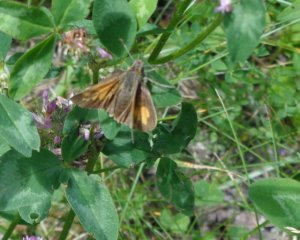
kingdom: Animalia
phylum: Arthropoda
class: Insecta
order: Lepidoptera
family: Hesperiidae
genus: Lon
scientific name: Lon hobomok
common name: Hobomok Skipper
